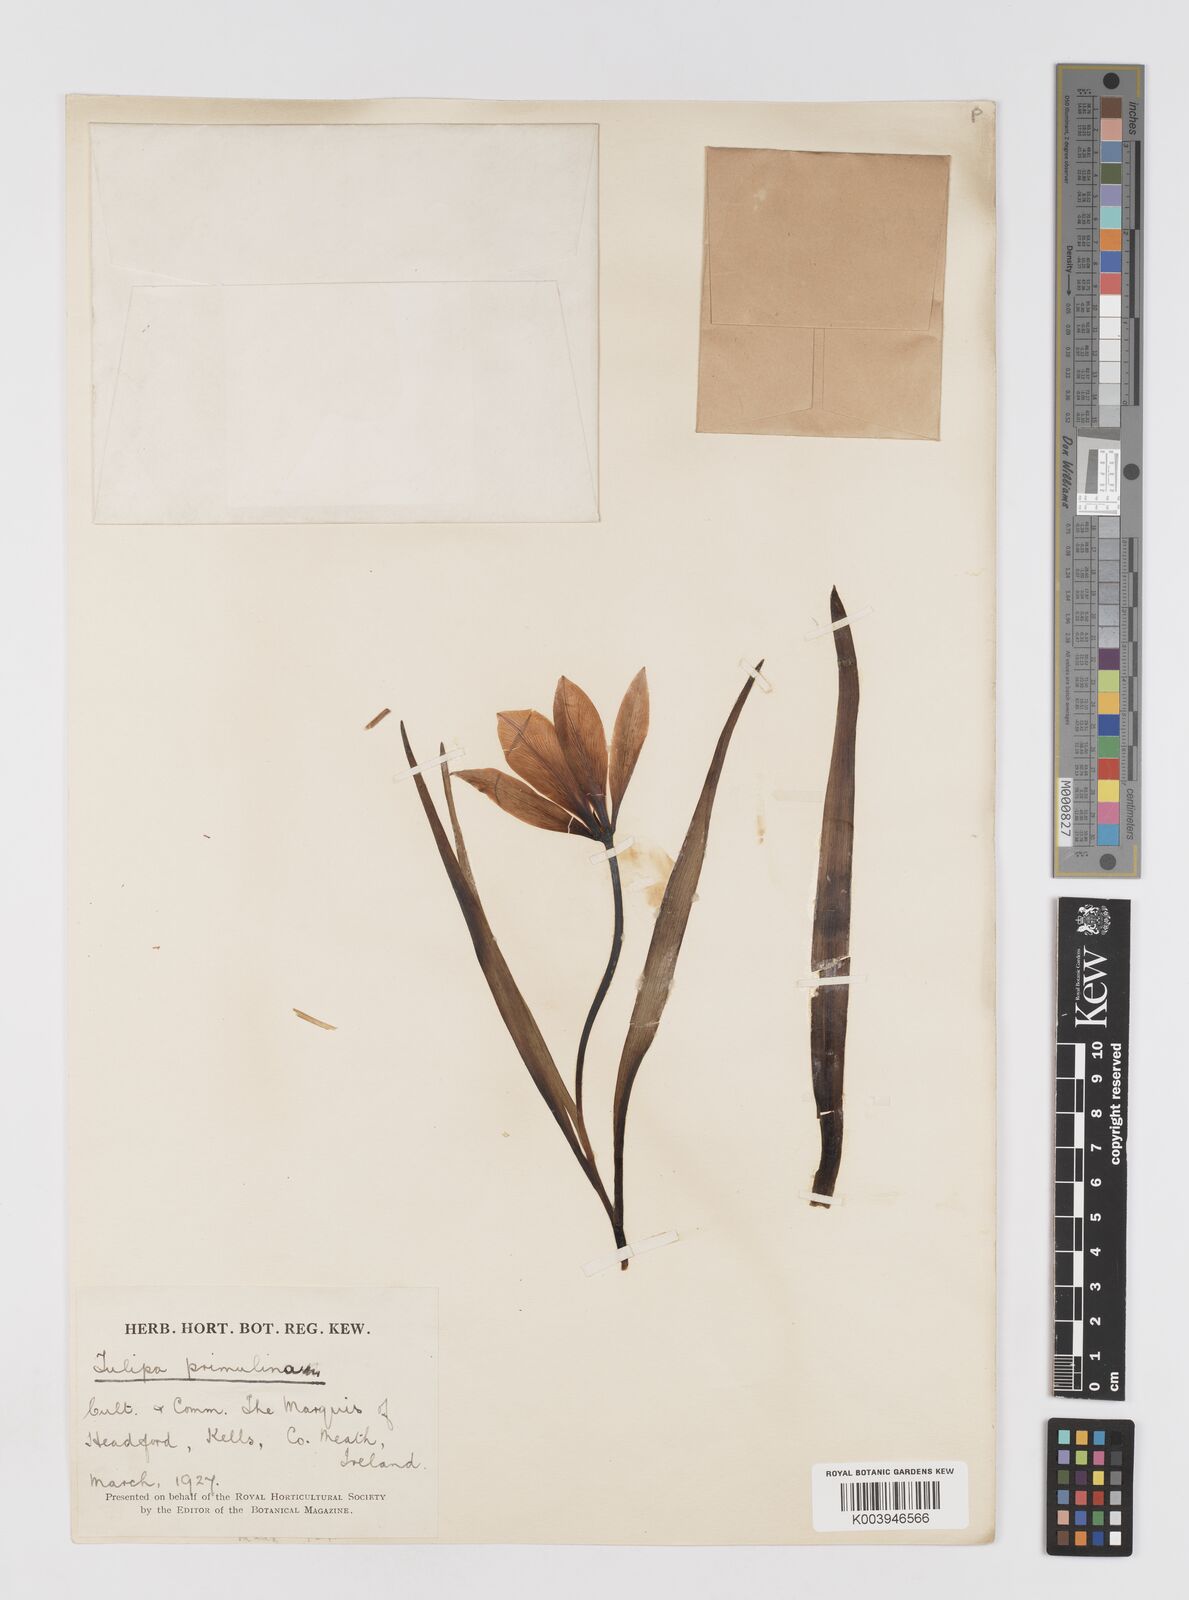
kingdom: Plantae
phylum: Tracheophyta
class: Liliopsida
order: Liliales
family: Liliaceae
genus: Tulipa
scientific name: Tulipa sylvestris
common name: Wild tulip
